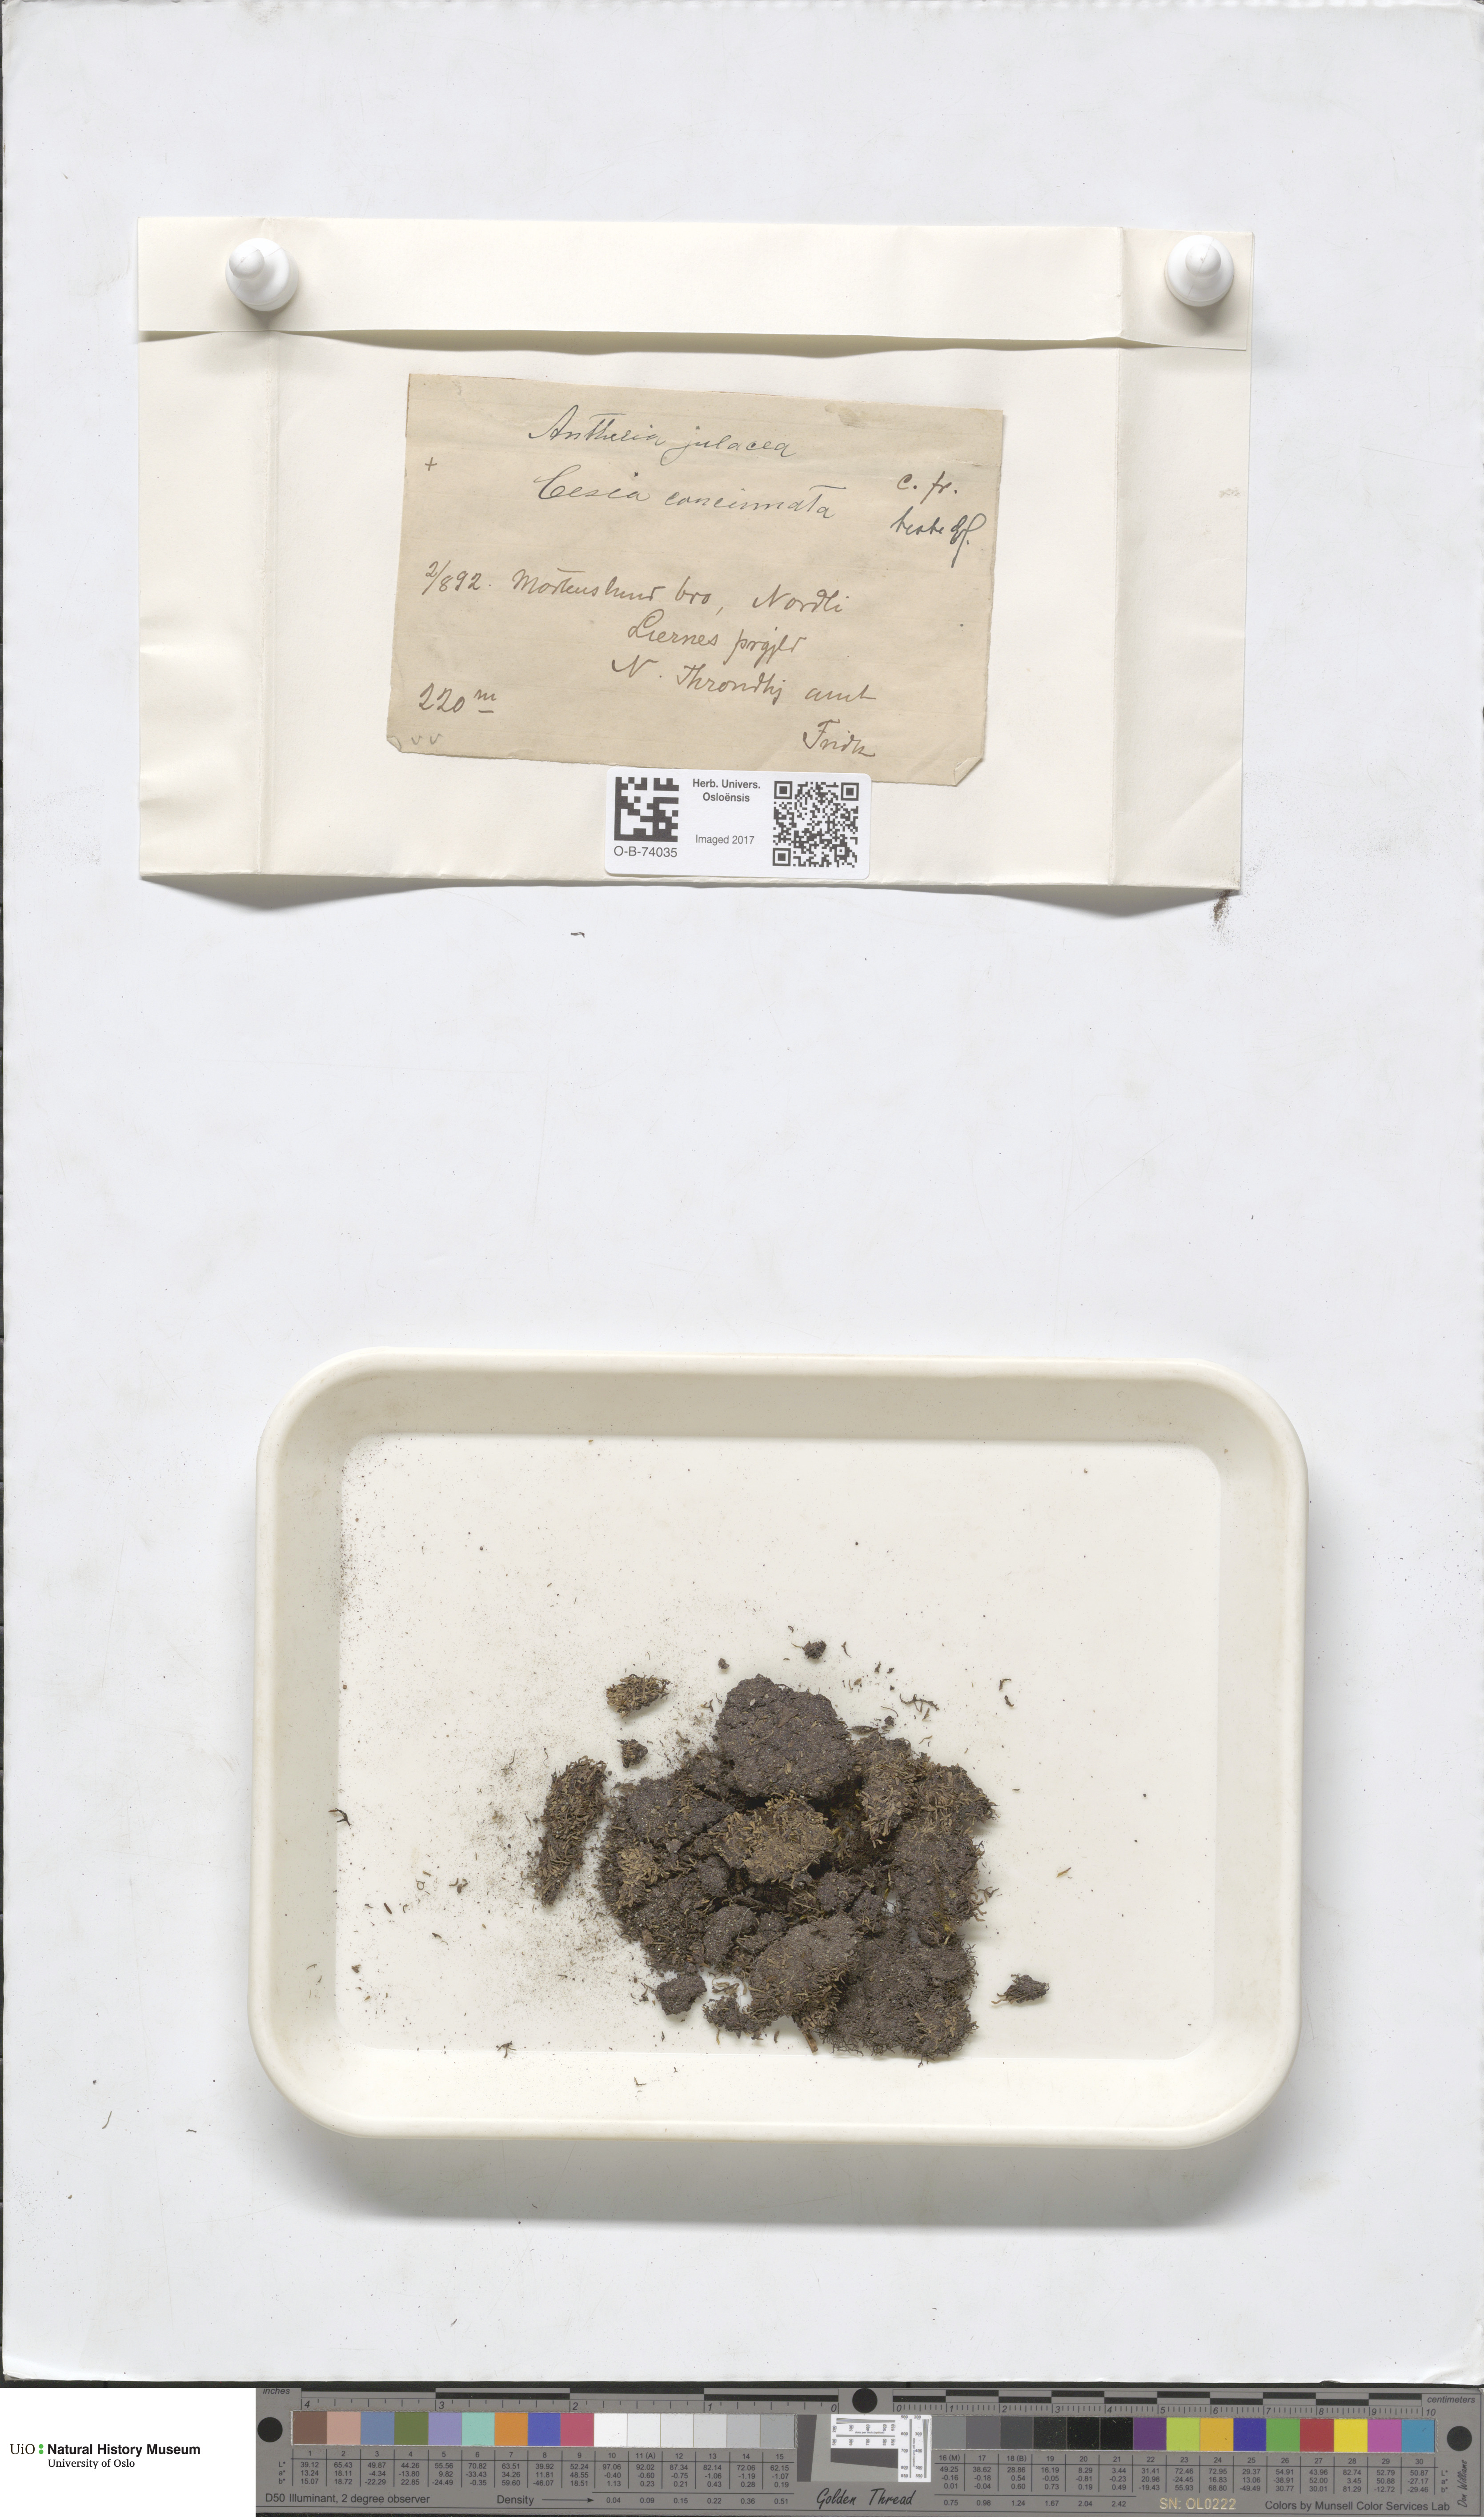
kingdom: Plantae
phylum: Marchantiophyta
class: Jungermanniopsida
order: Jungermanniales
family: Gymnomitriaceae
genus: Marsupella
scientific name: Marsupella apiculata
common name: Pointed frostwort
